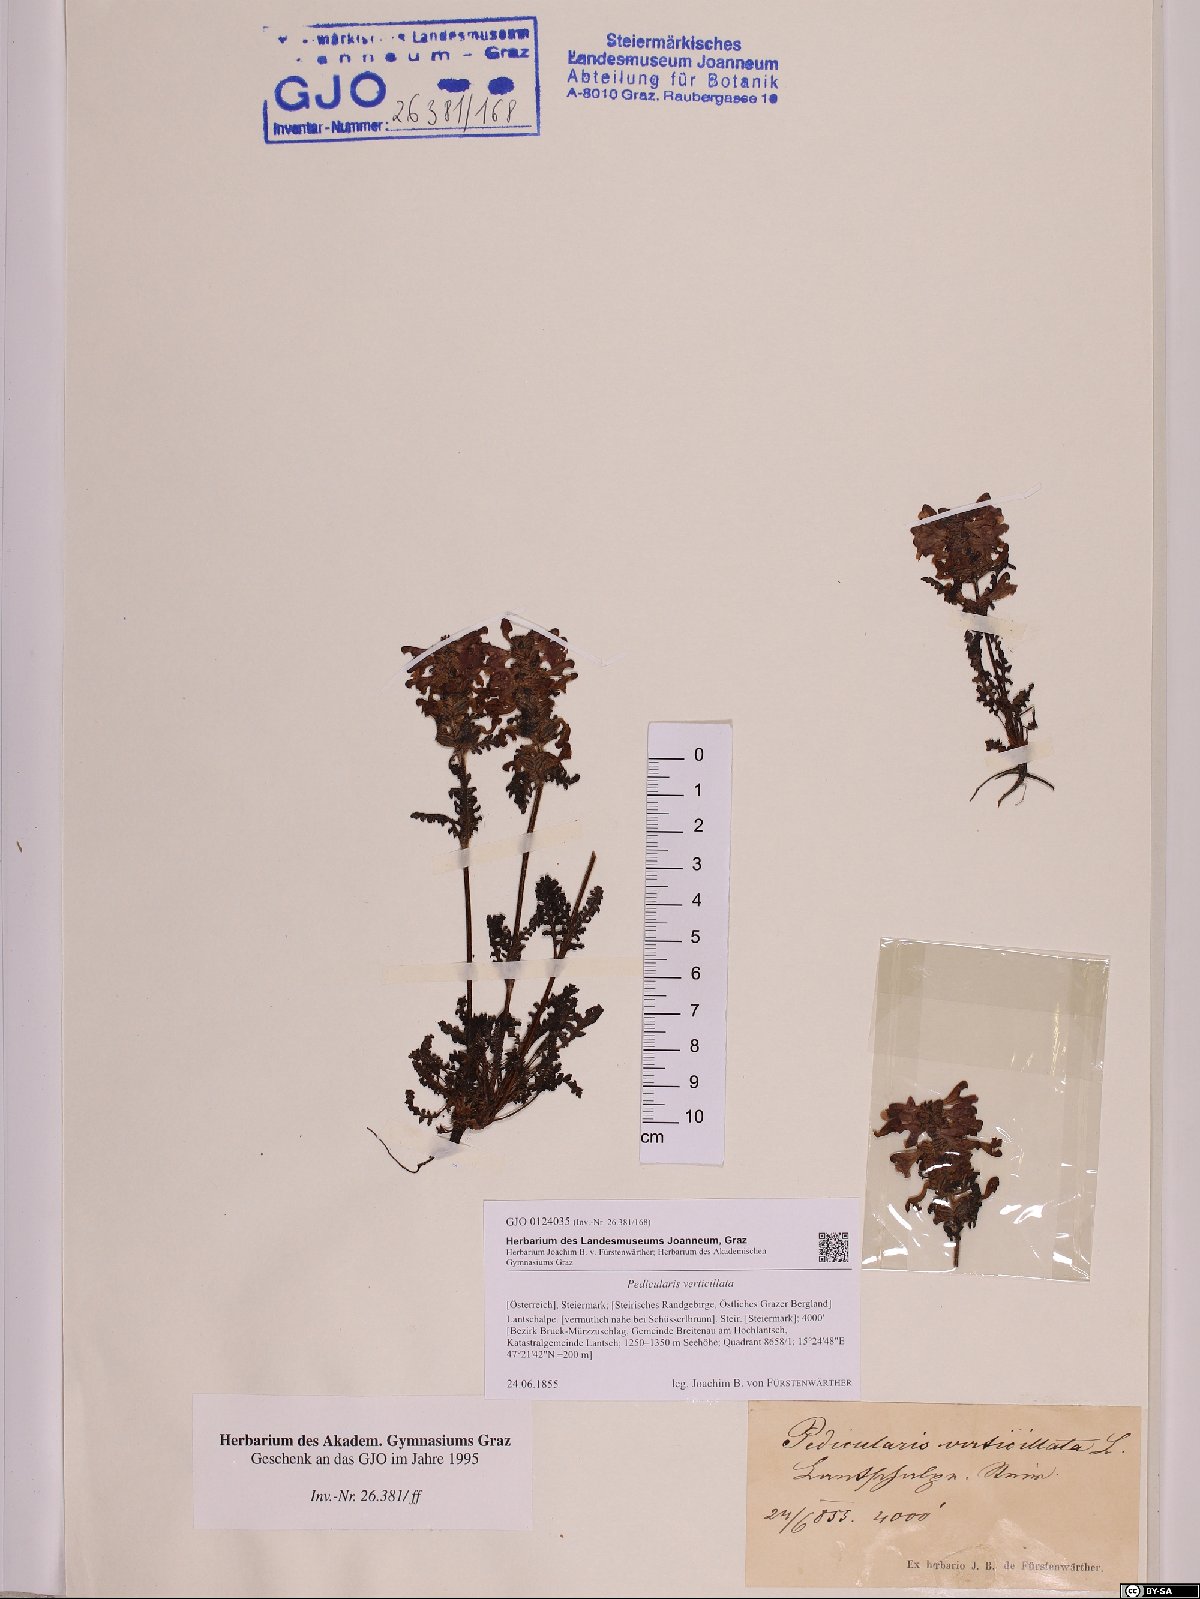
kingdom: Plantae
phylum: Tracheophyta
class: Magnoliopsida
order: Lamiales
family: Orobanchaceae
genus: Pedicularis
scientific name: Pedicularis verticillata
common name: Whorled lousewort
